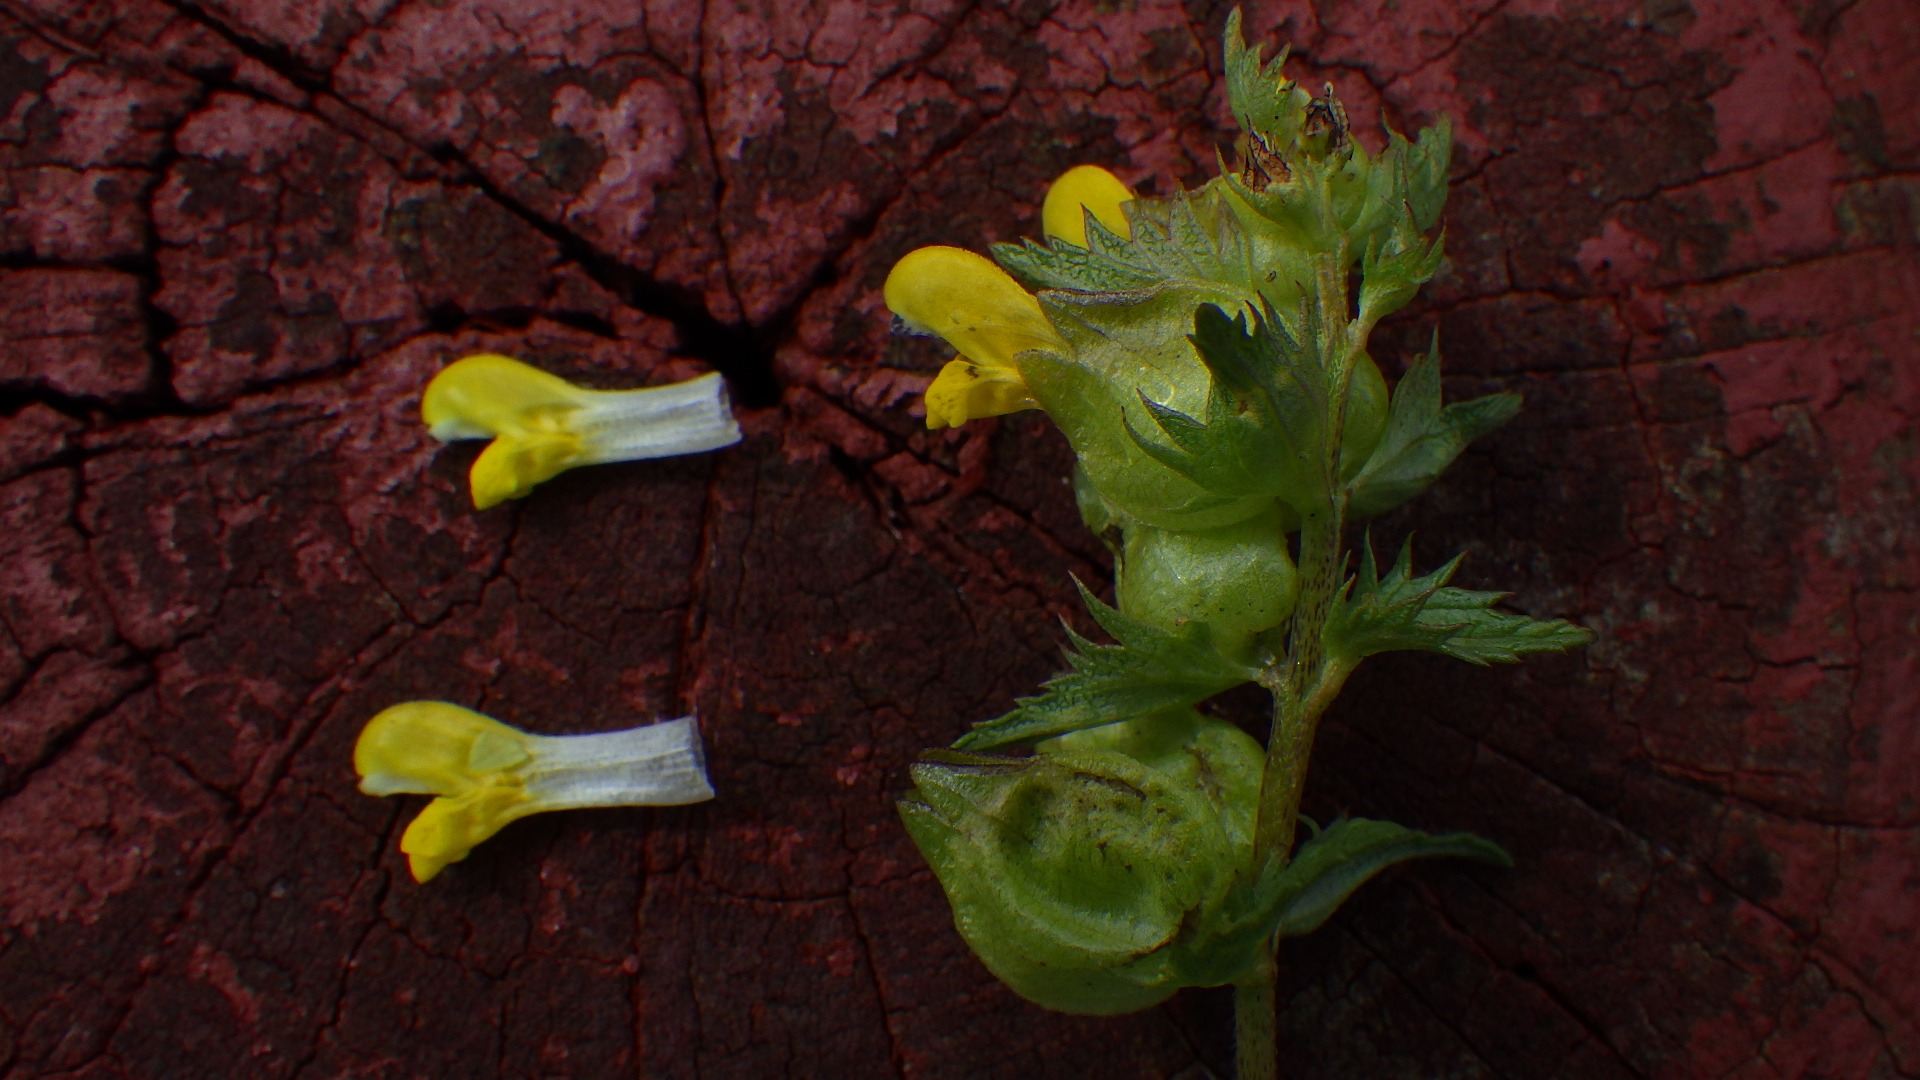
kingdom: Plantae
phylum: Tracheophyta
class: Magnoliopsida
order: Lamiales
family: Orobanchaceae
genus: Rhinanthus
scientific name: Rhinanthus minor
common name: Liden skjaller
